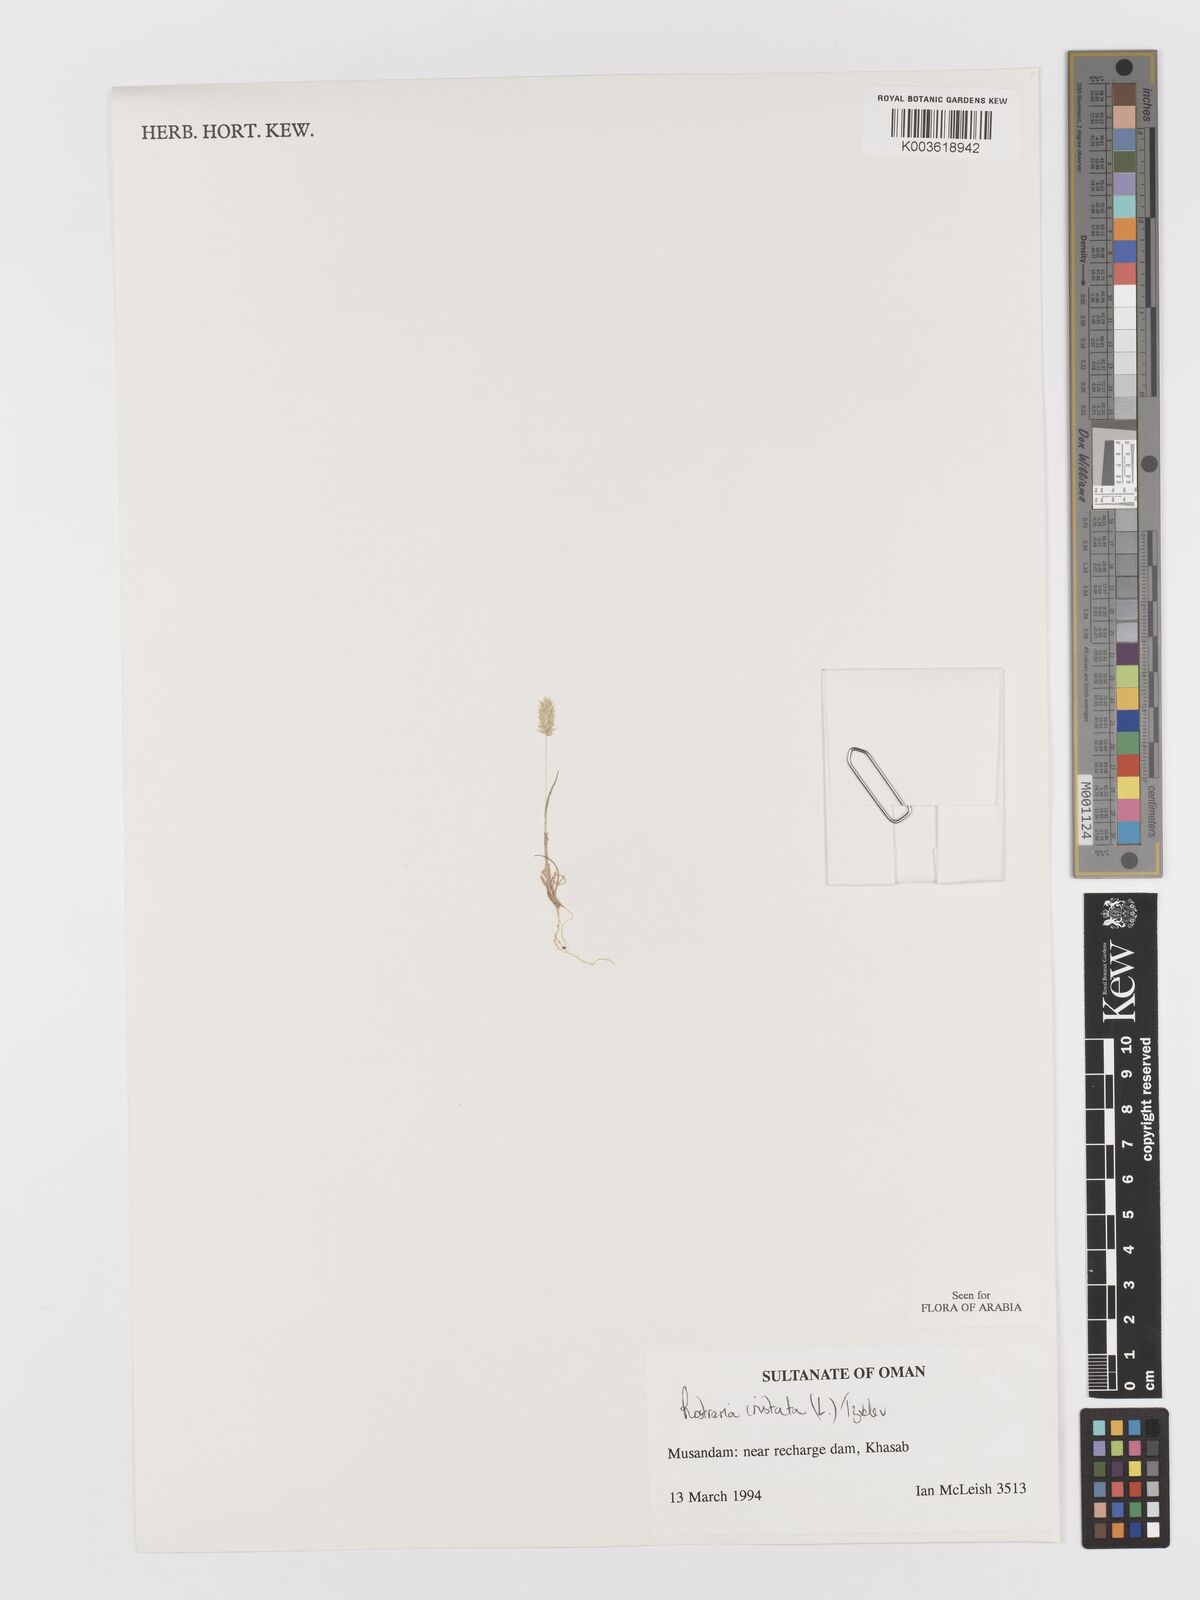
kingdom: Plantae
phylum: Tracheophyta
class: Liliopsida
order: Poales
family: Poaceae
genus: Rostraria
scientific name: Rostraria cristata
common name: Mediterranean hair-grass
